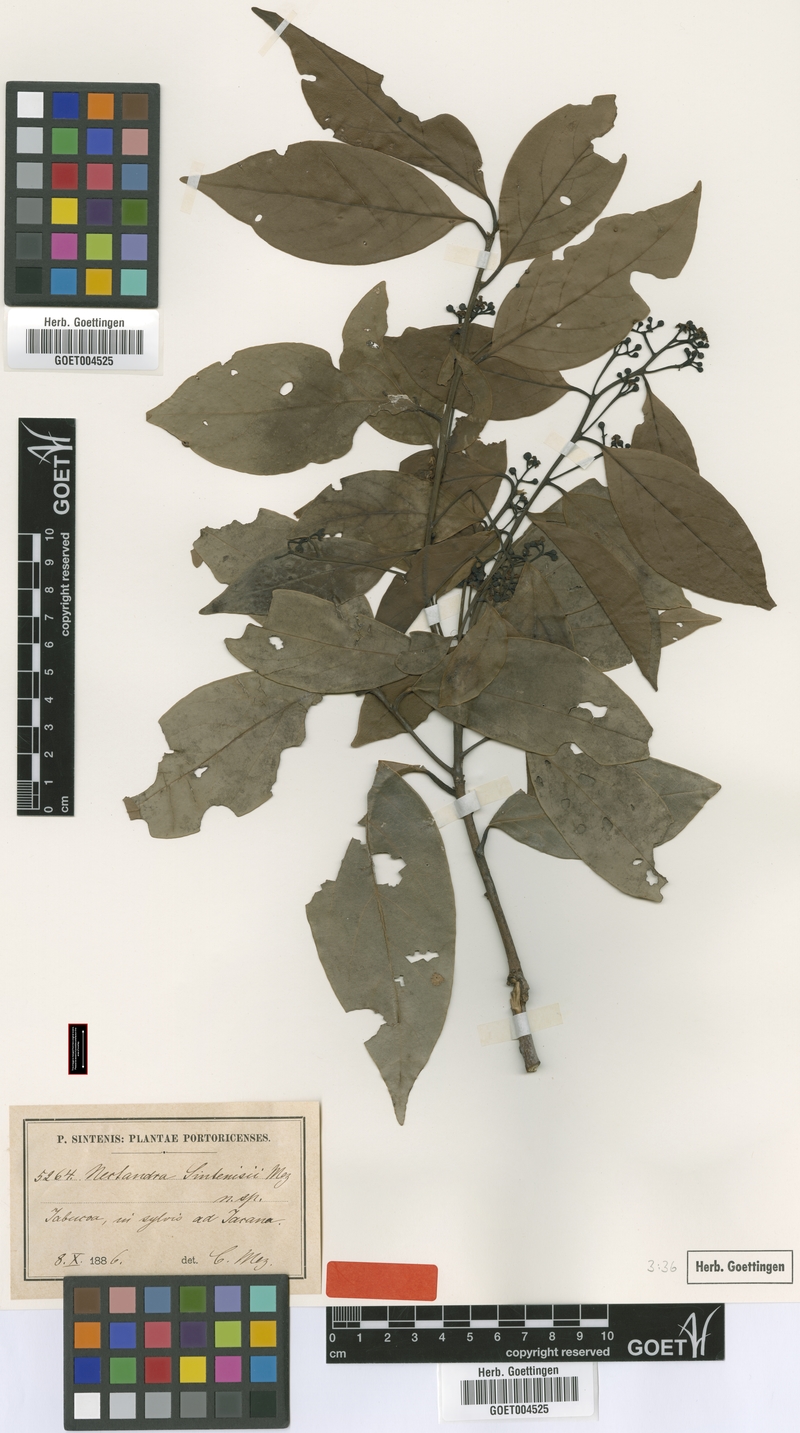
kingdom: Plantae
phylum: Tracheophyta
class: Magnoliopsida
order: Laurales
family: Lauraceae
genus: Nectandra
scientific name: Nectandra turbacensis
